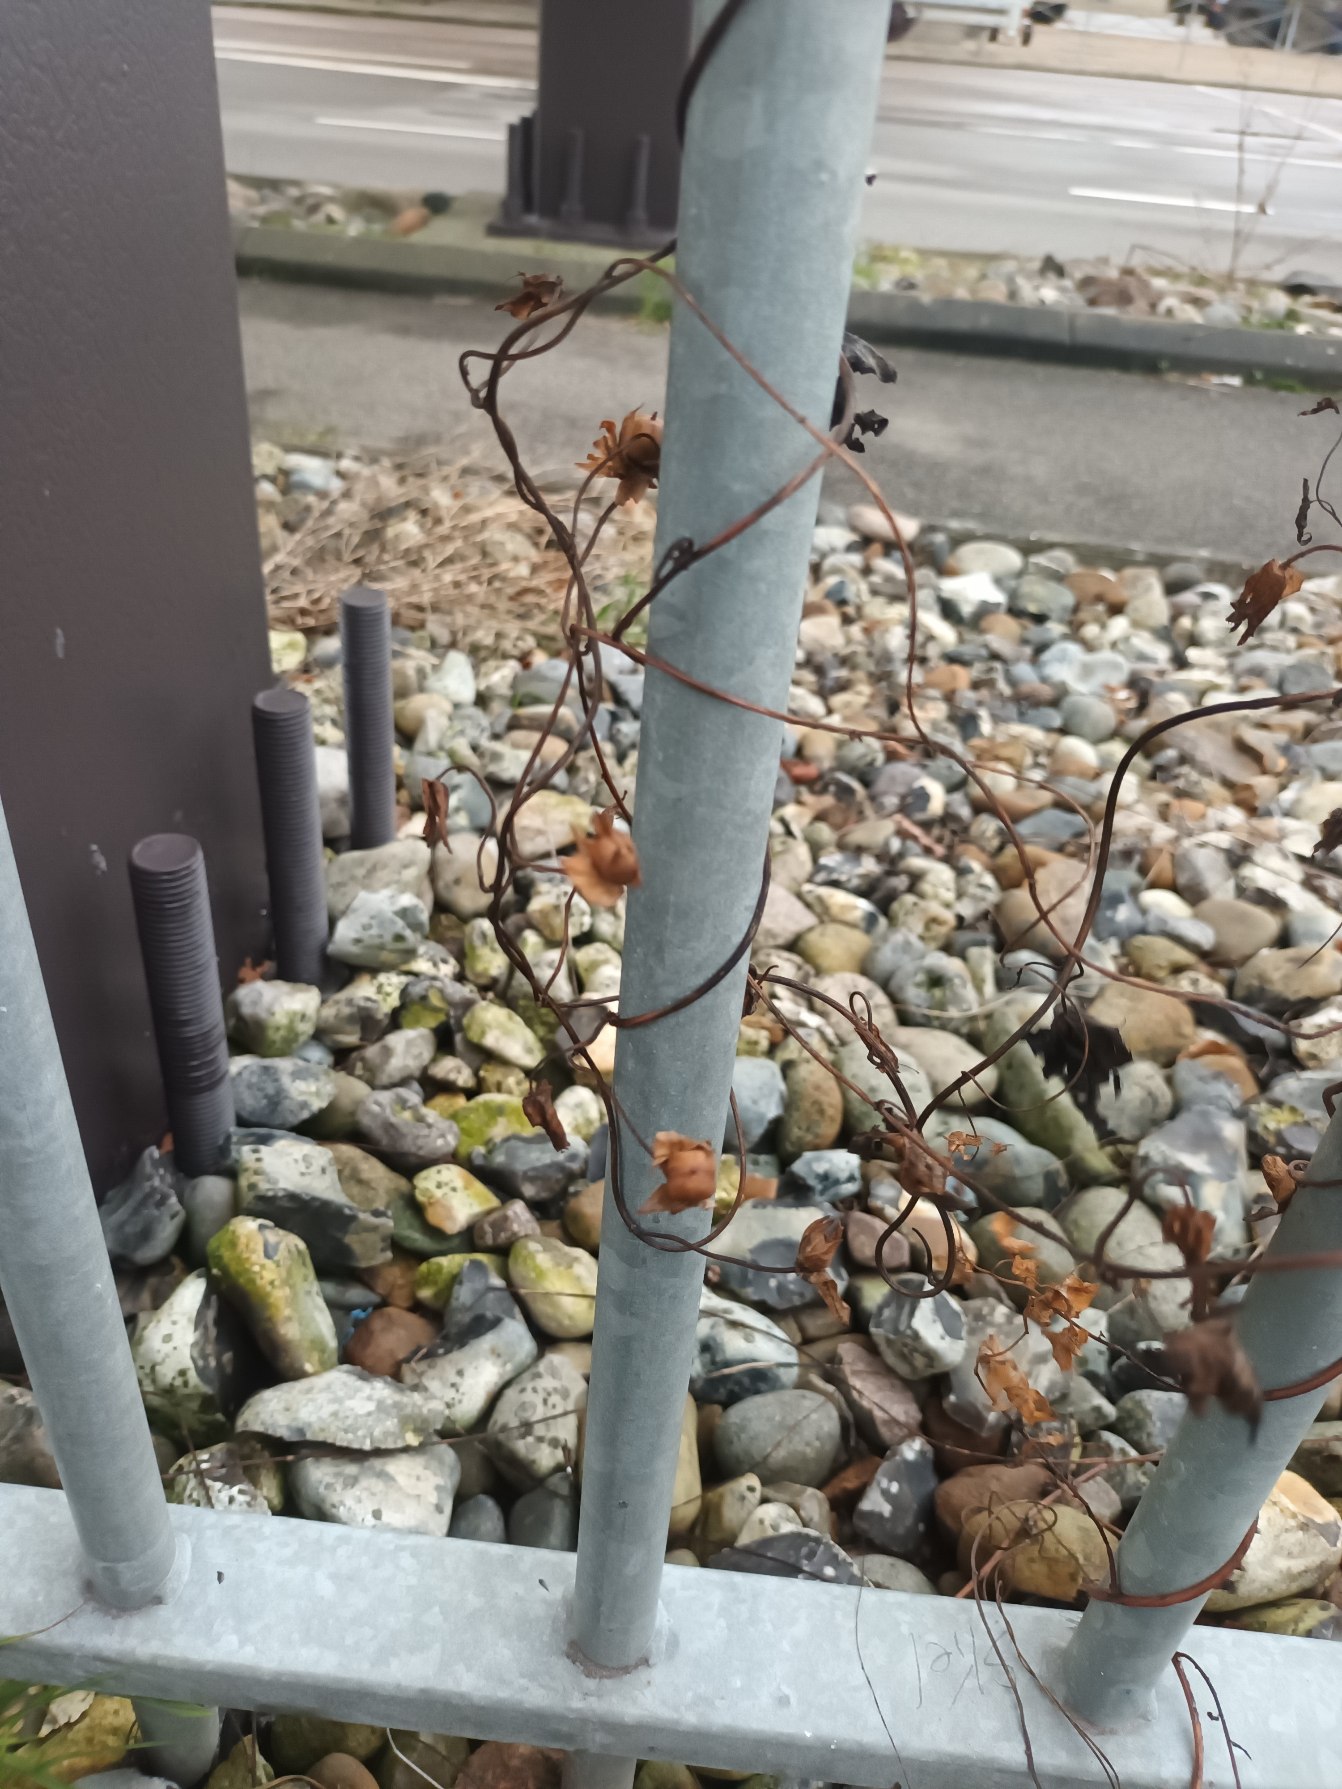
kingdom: Plantae
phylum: Tracheophyta
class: Magnoliopsida
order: Solanales
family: Convolvulaceae
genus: Calystegia
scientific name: Calystegia sepium
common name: Gærde-snerle
